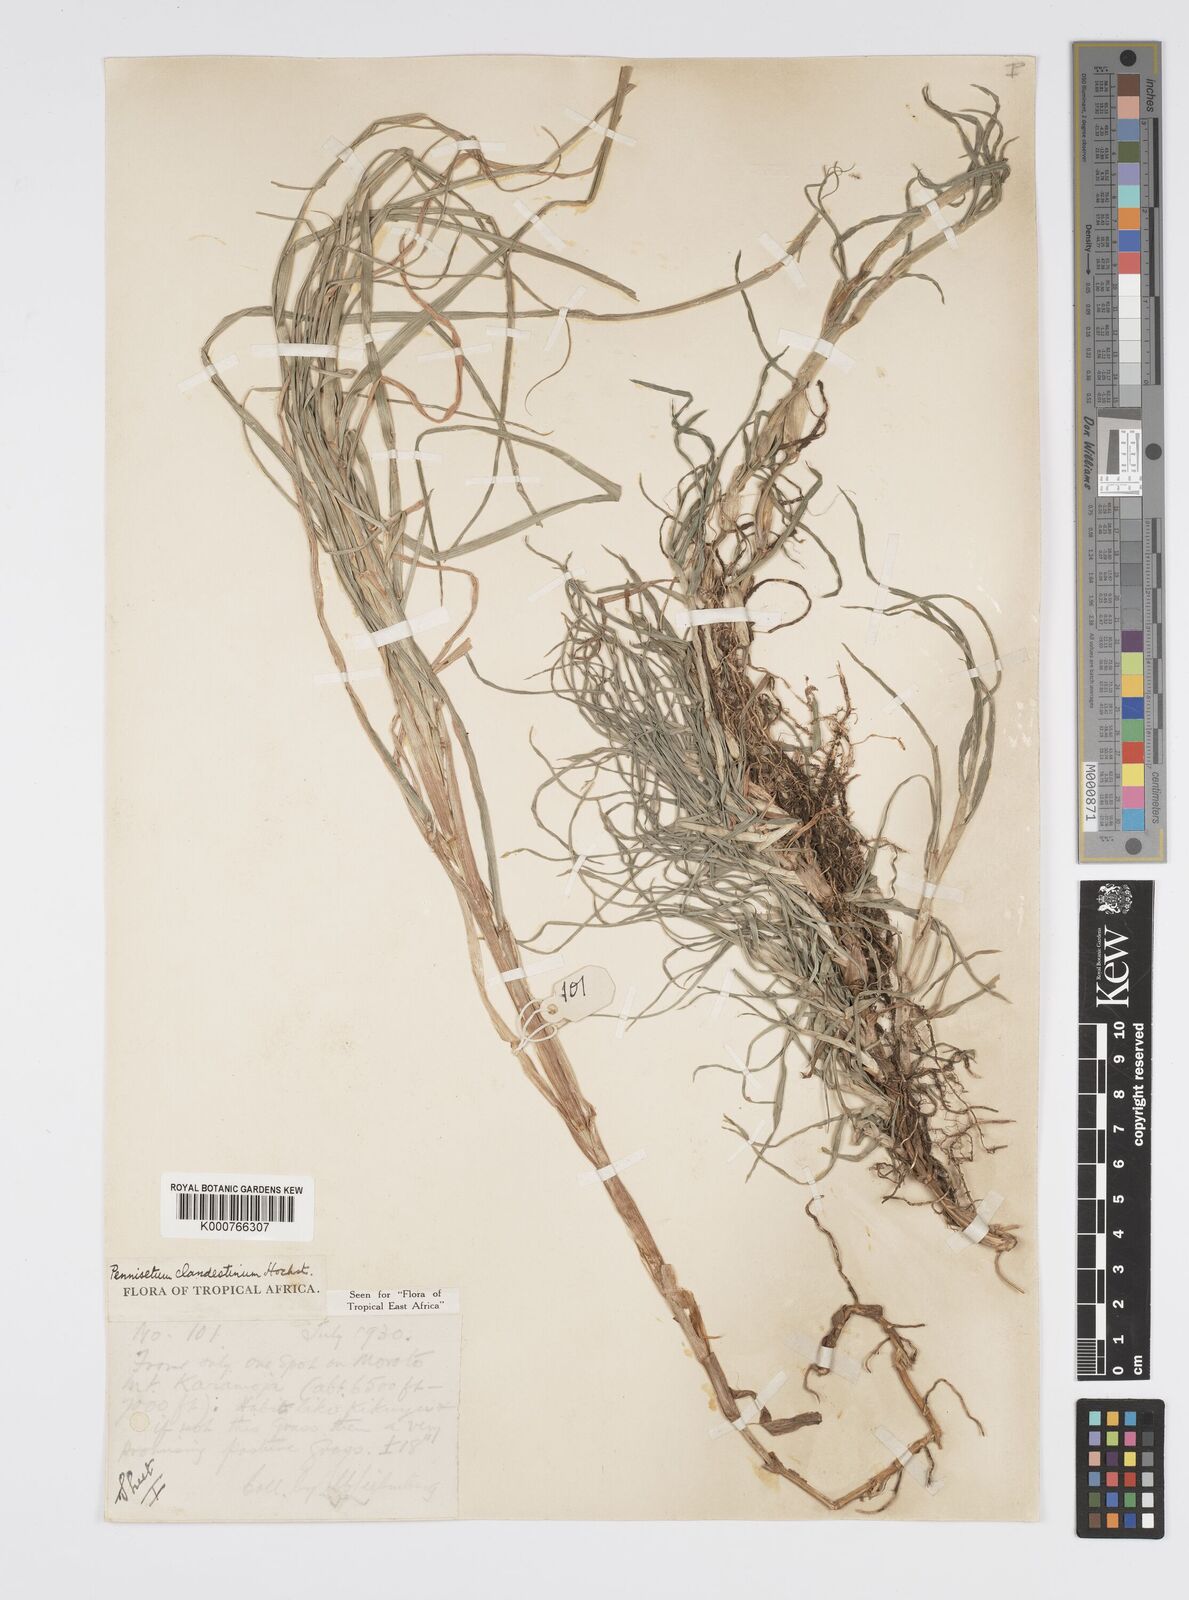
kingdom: Plantae
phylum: Tracheophyta
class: Liliopsida
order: Poales
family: Poaceae
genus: Cenchrus
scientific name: Cenchrus clandestinus
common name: Kikuyugrass
